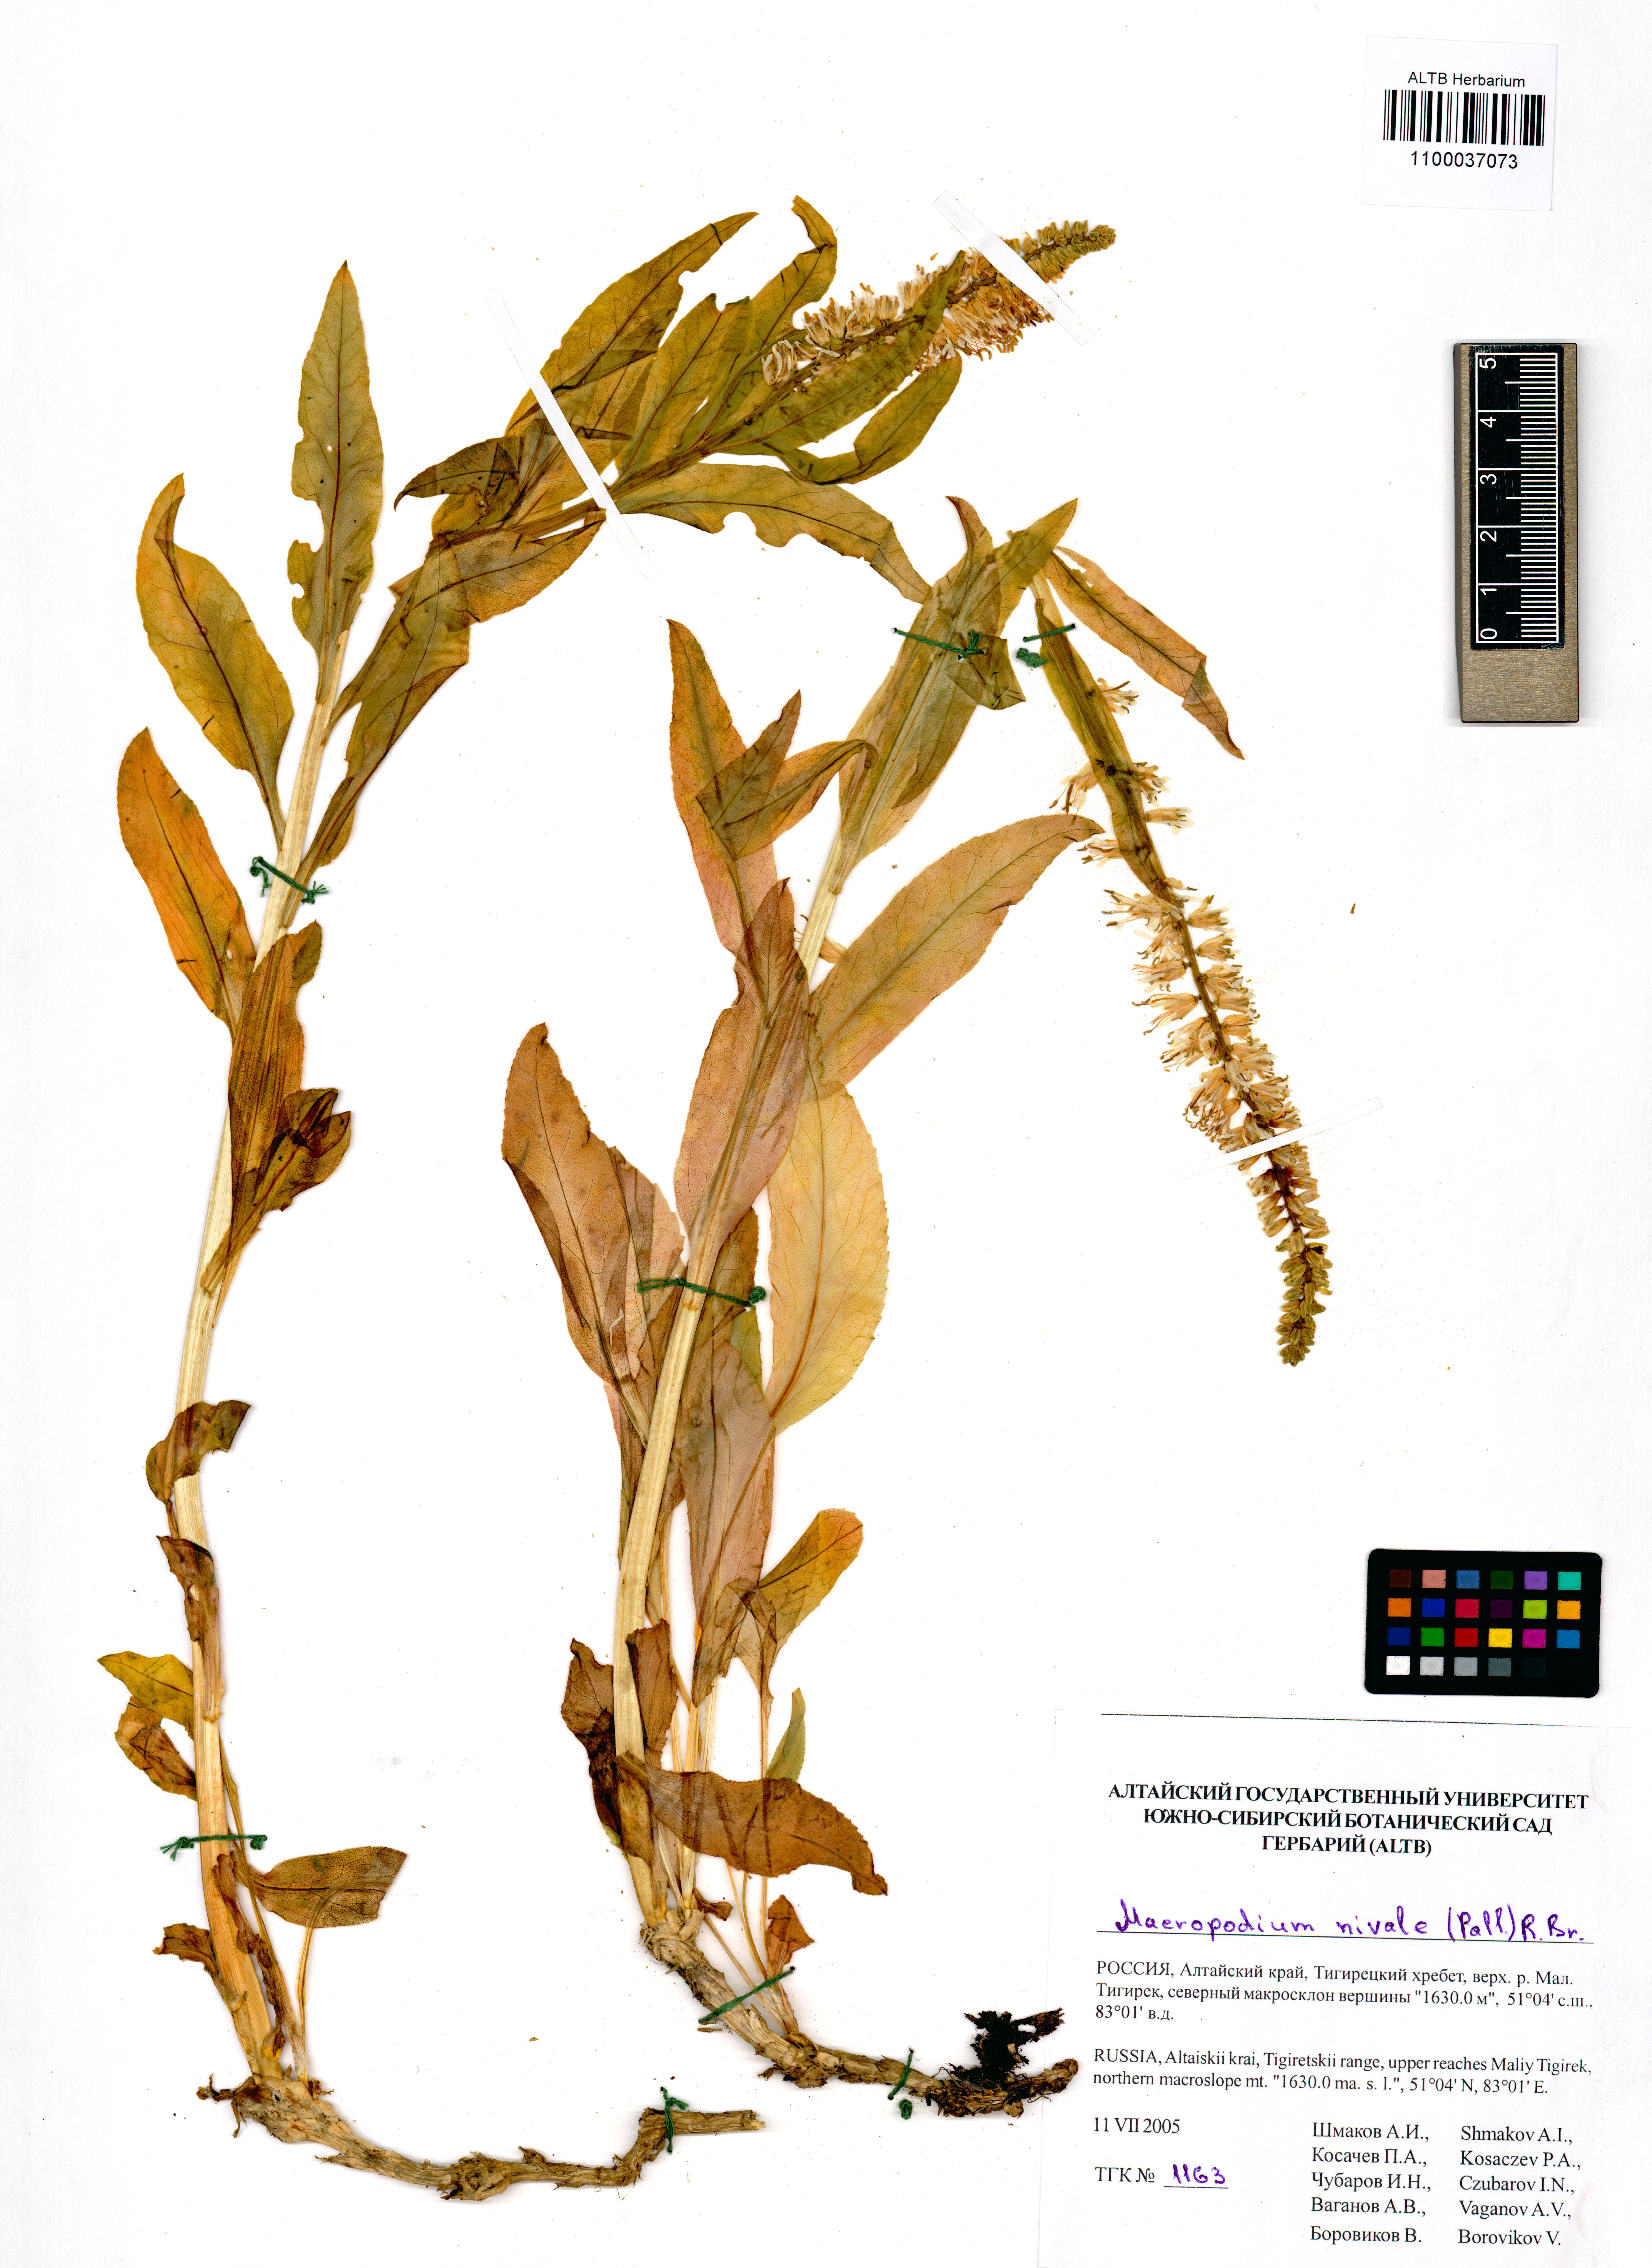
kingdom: Plantae
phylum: Tracheophyta
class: Magnoliopsida
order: Brassicales
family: Brassicaceae
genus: Macropodium
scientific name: Macropodium nivale
